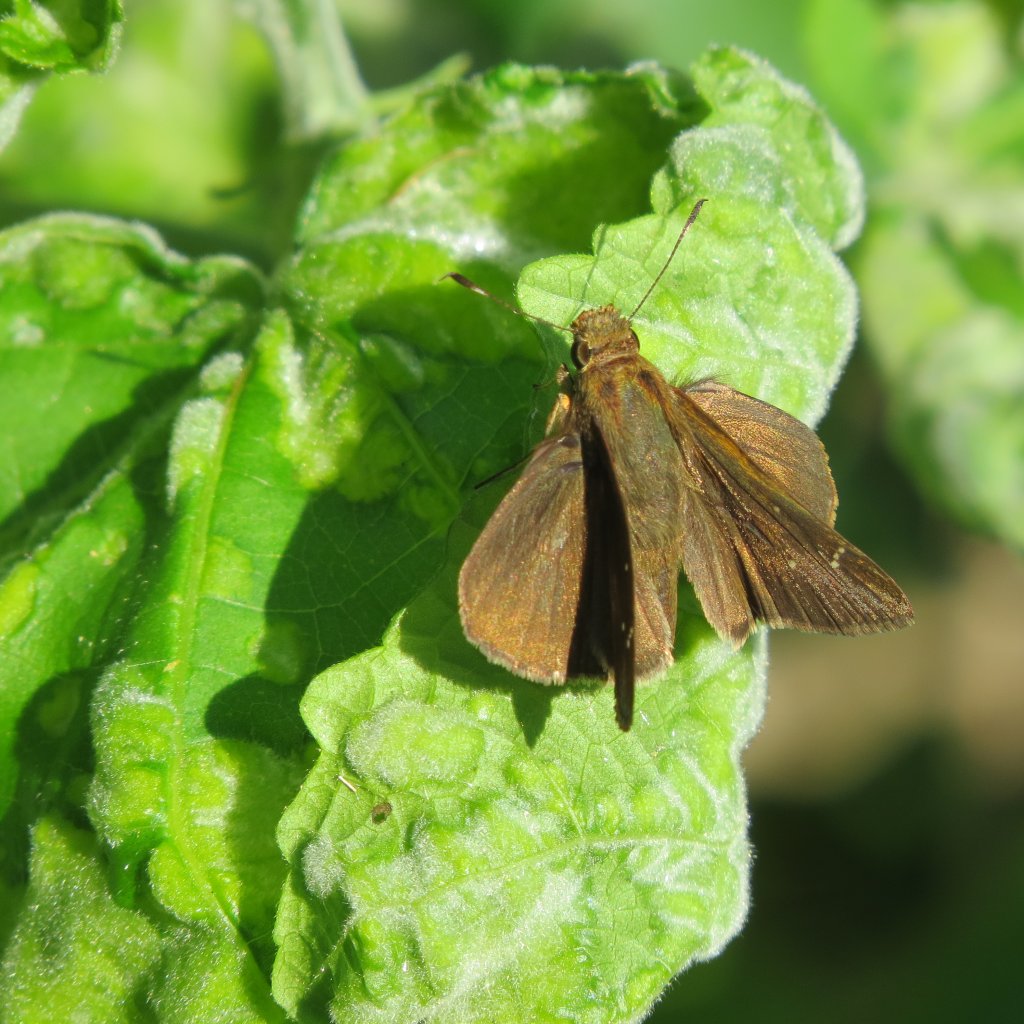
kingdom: Animalia
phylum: Arthropoda
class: Insecta
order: Lepidoptera
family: Hesperiidae
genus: Lerema
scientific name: Lerema accius
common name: Clouded Skipper
